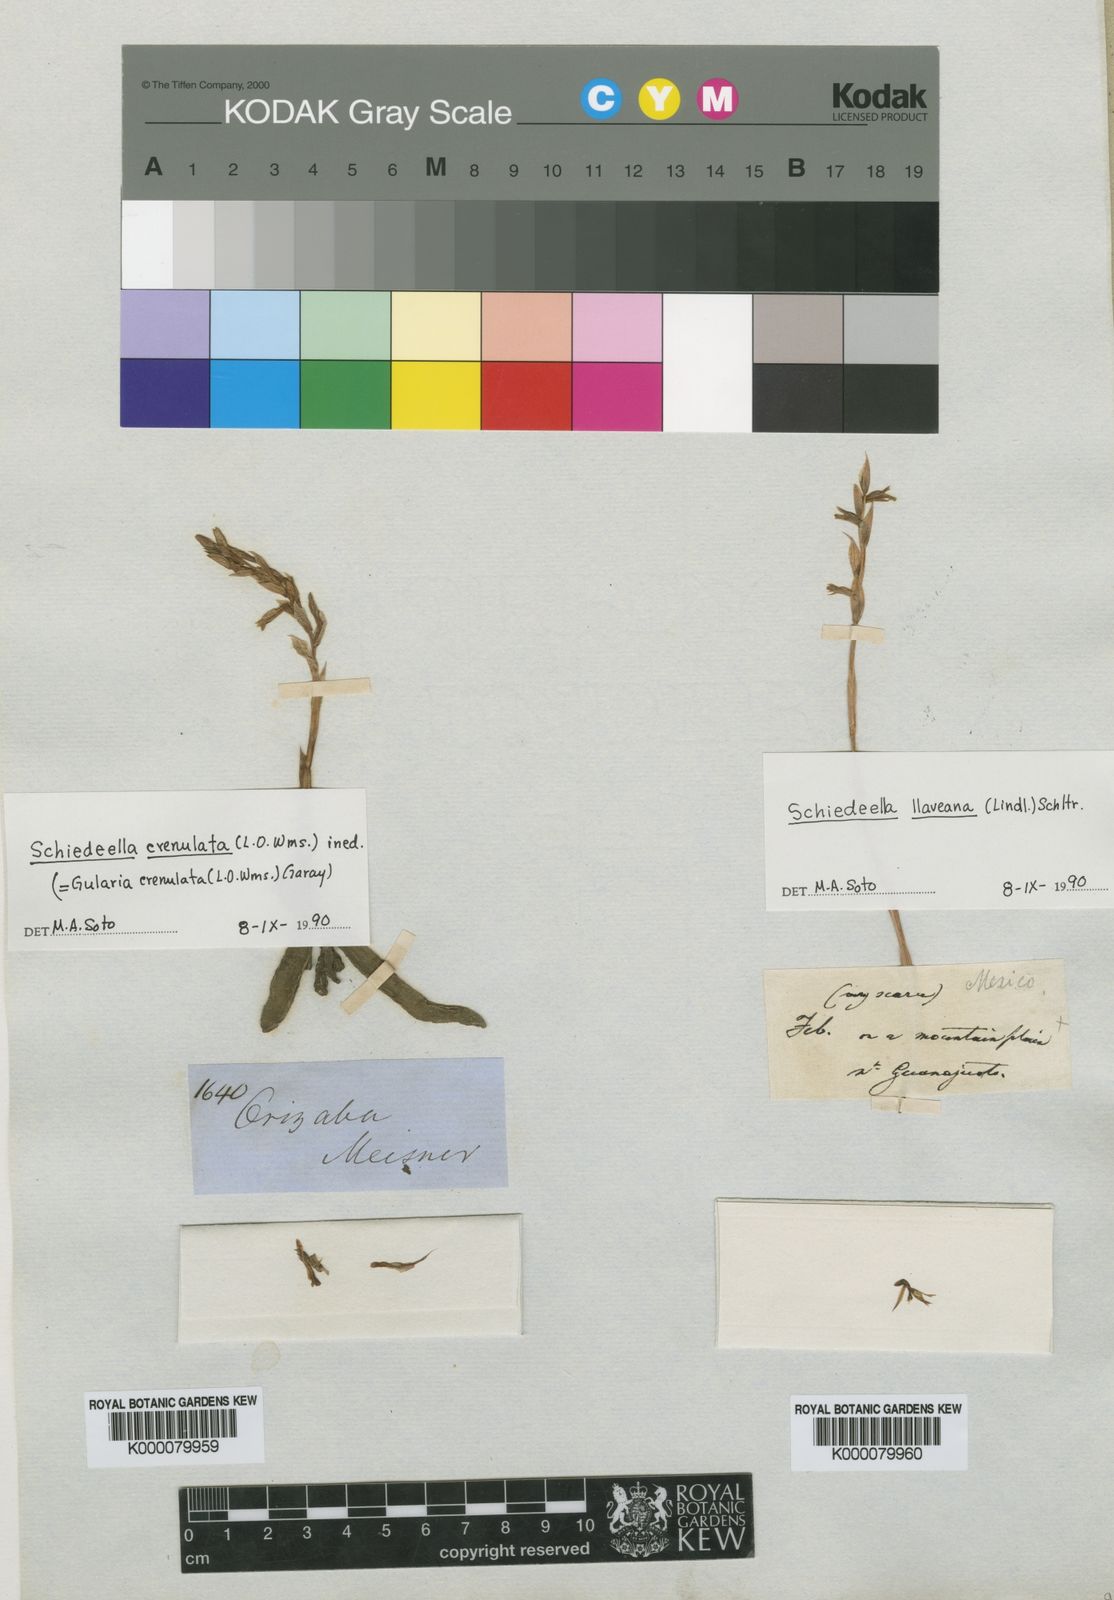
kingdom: Plantae
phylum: Tracheophyta
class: Liliopsida
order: Asparagales
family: Orchidaceae
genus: Greenwoodiella
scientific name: Greenwoodiella micrantha
